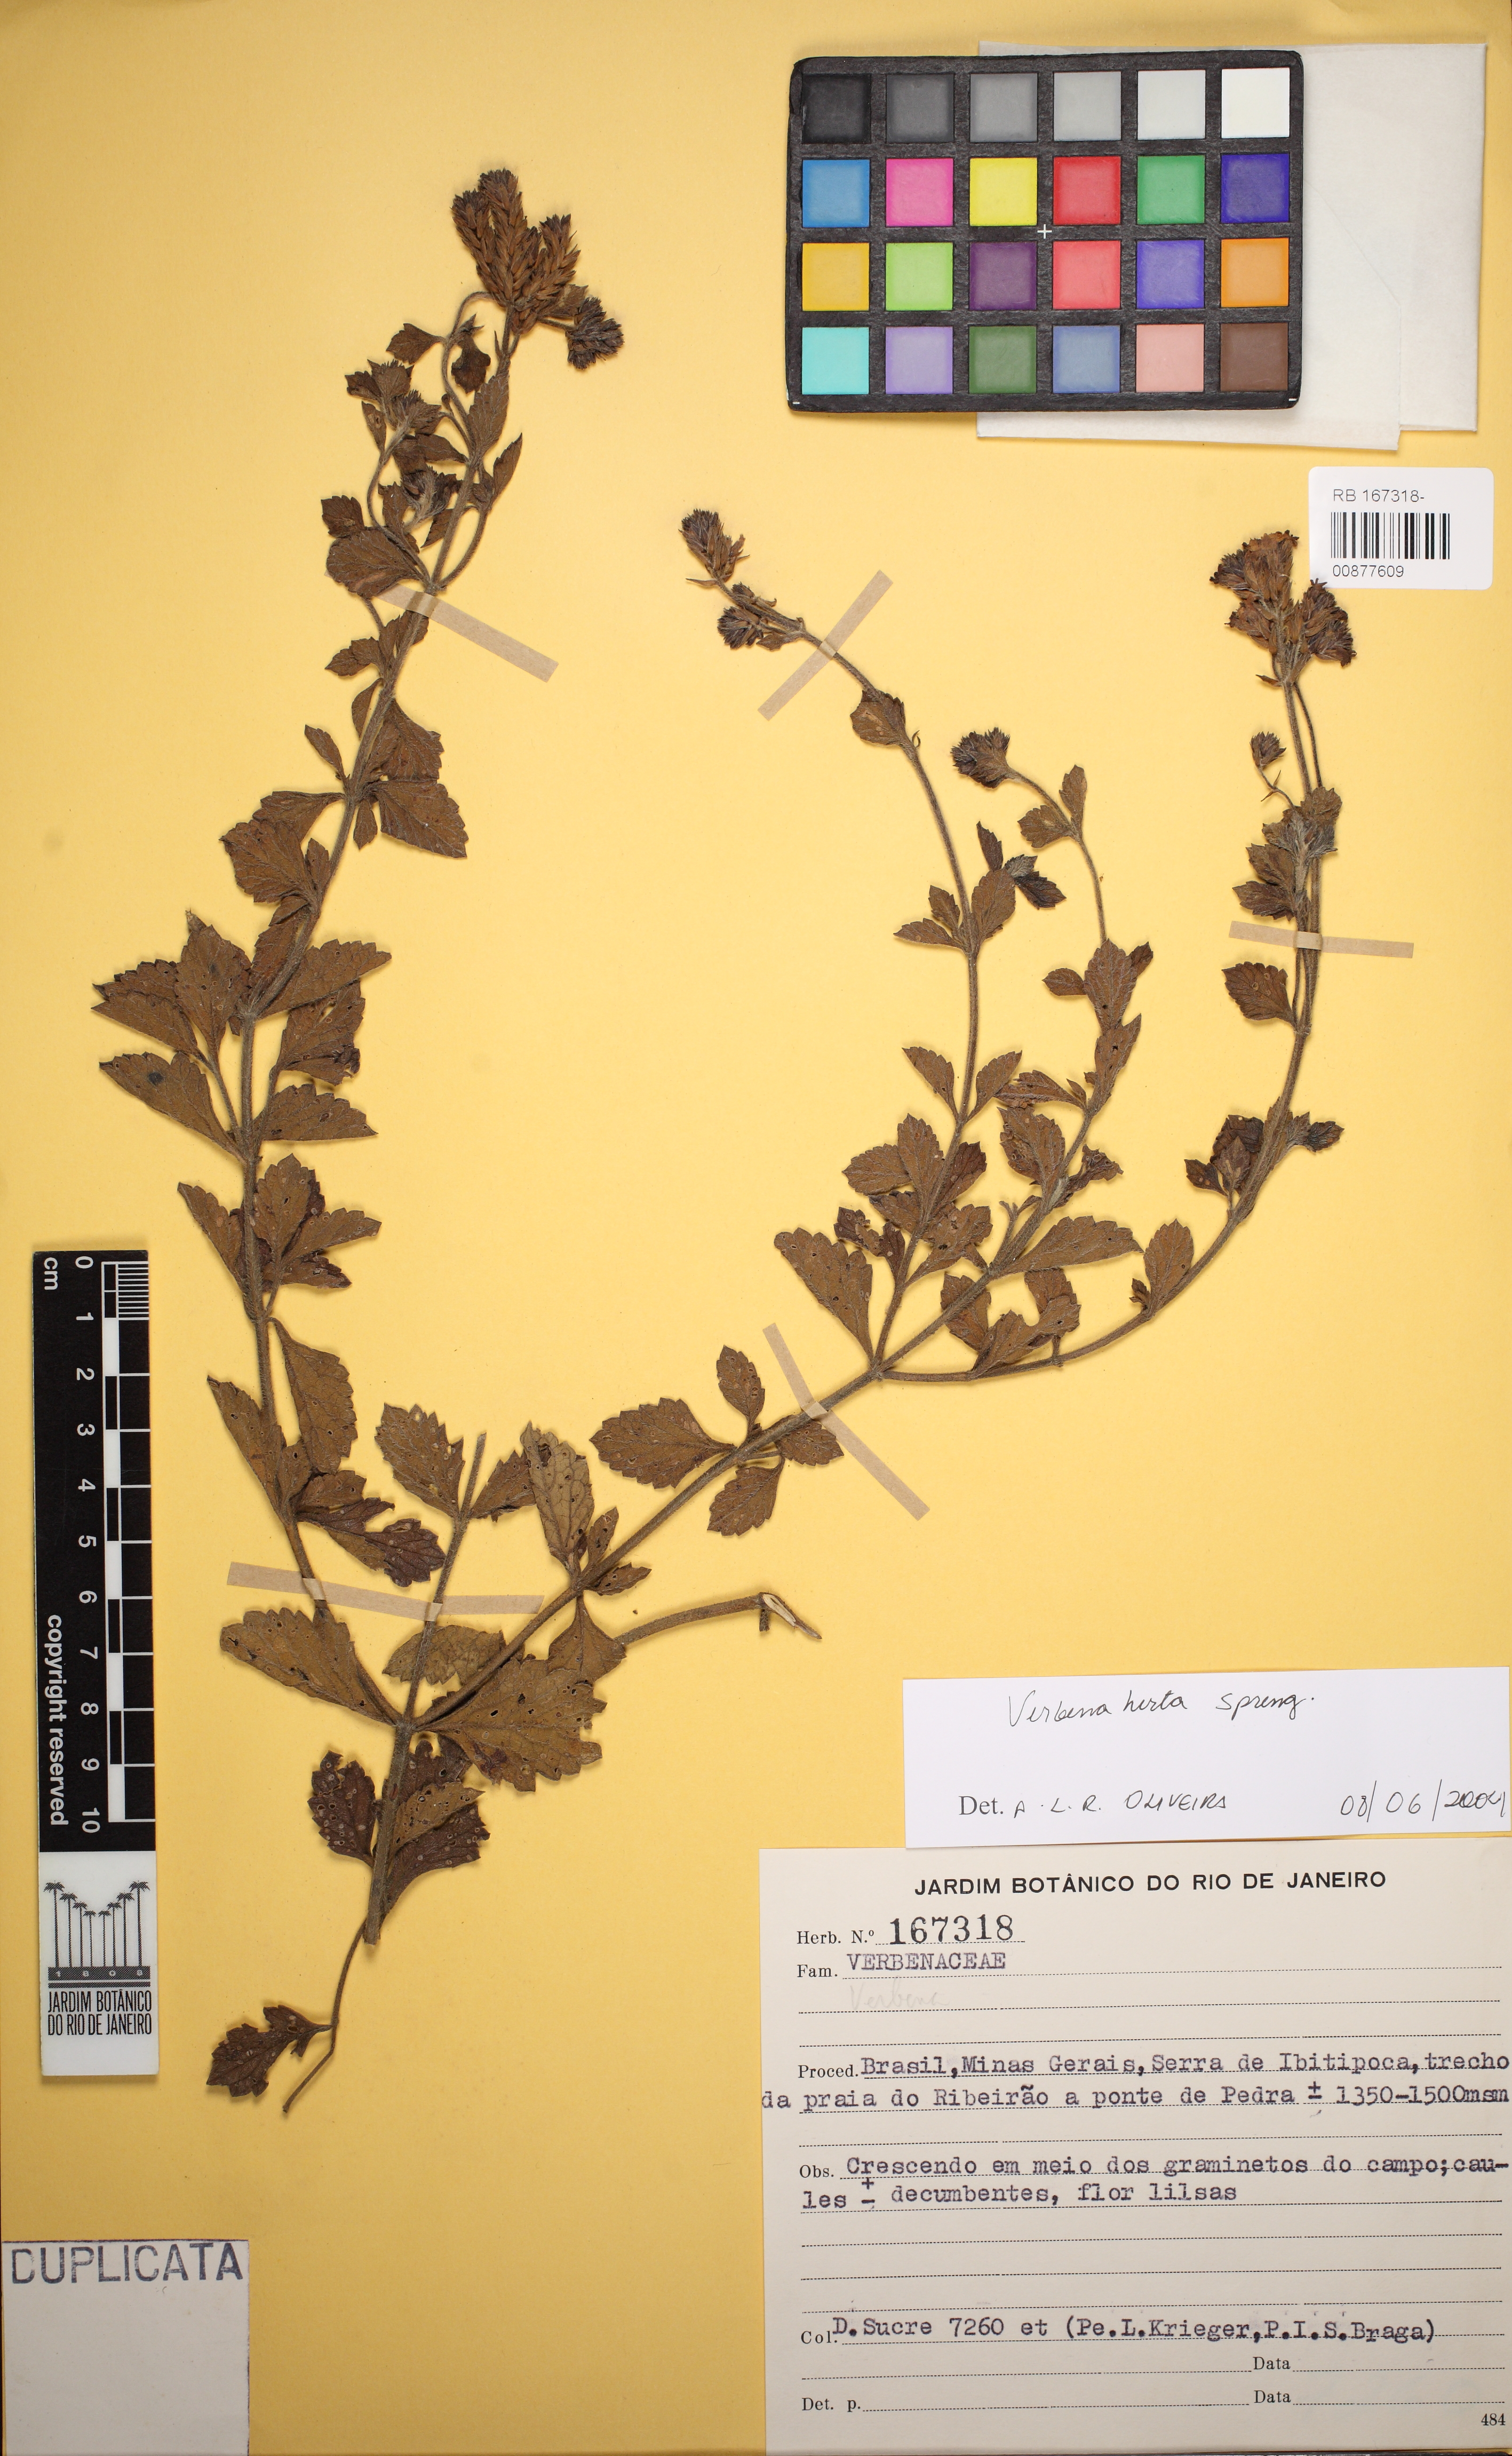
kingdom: Plantae
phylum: Tracheophyta
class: Magnoliopsida
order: Lamiales
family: Verbenaceae
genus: Verbena
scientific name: Verbena hirta
